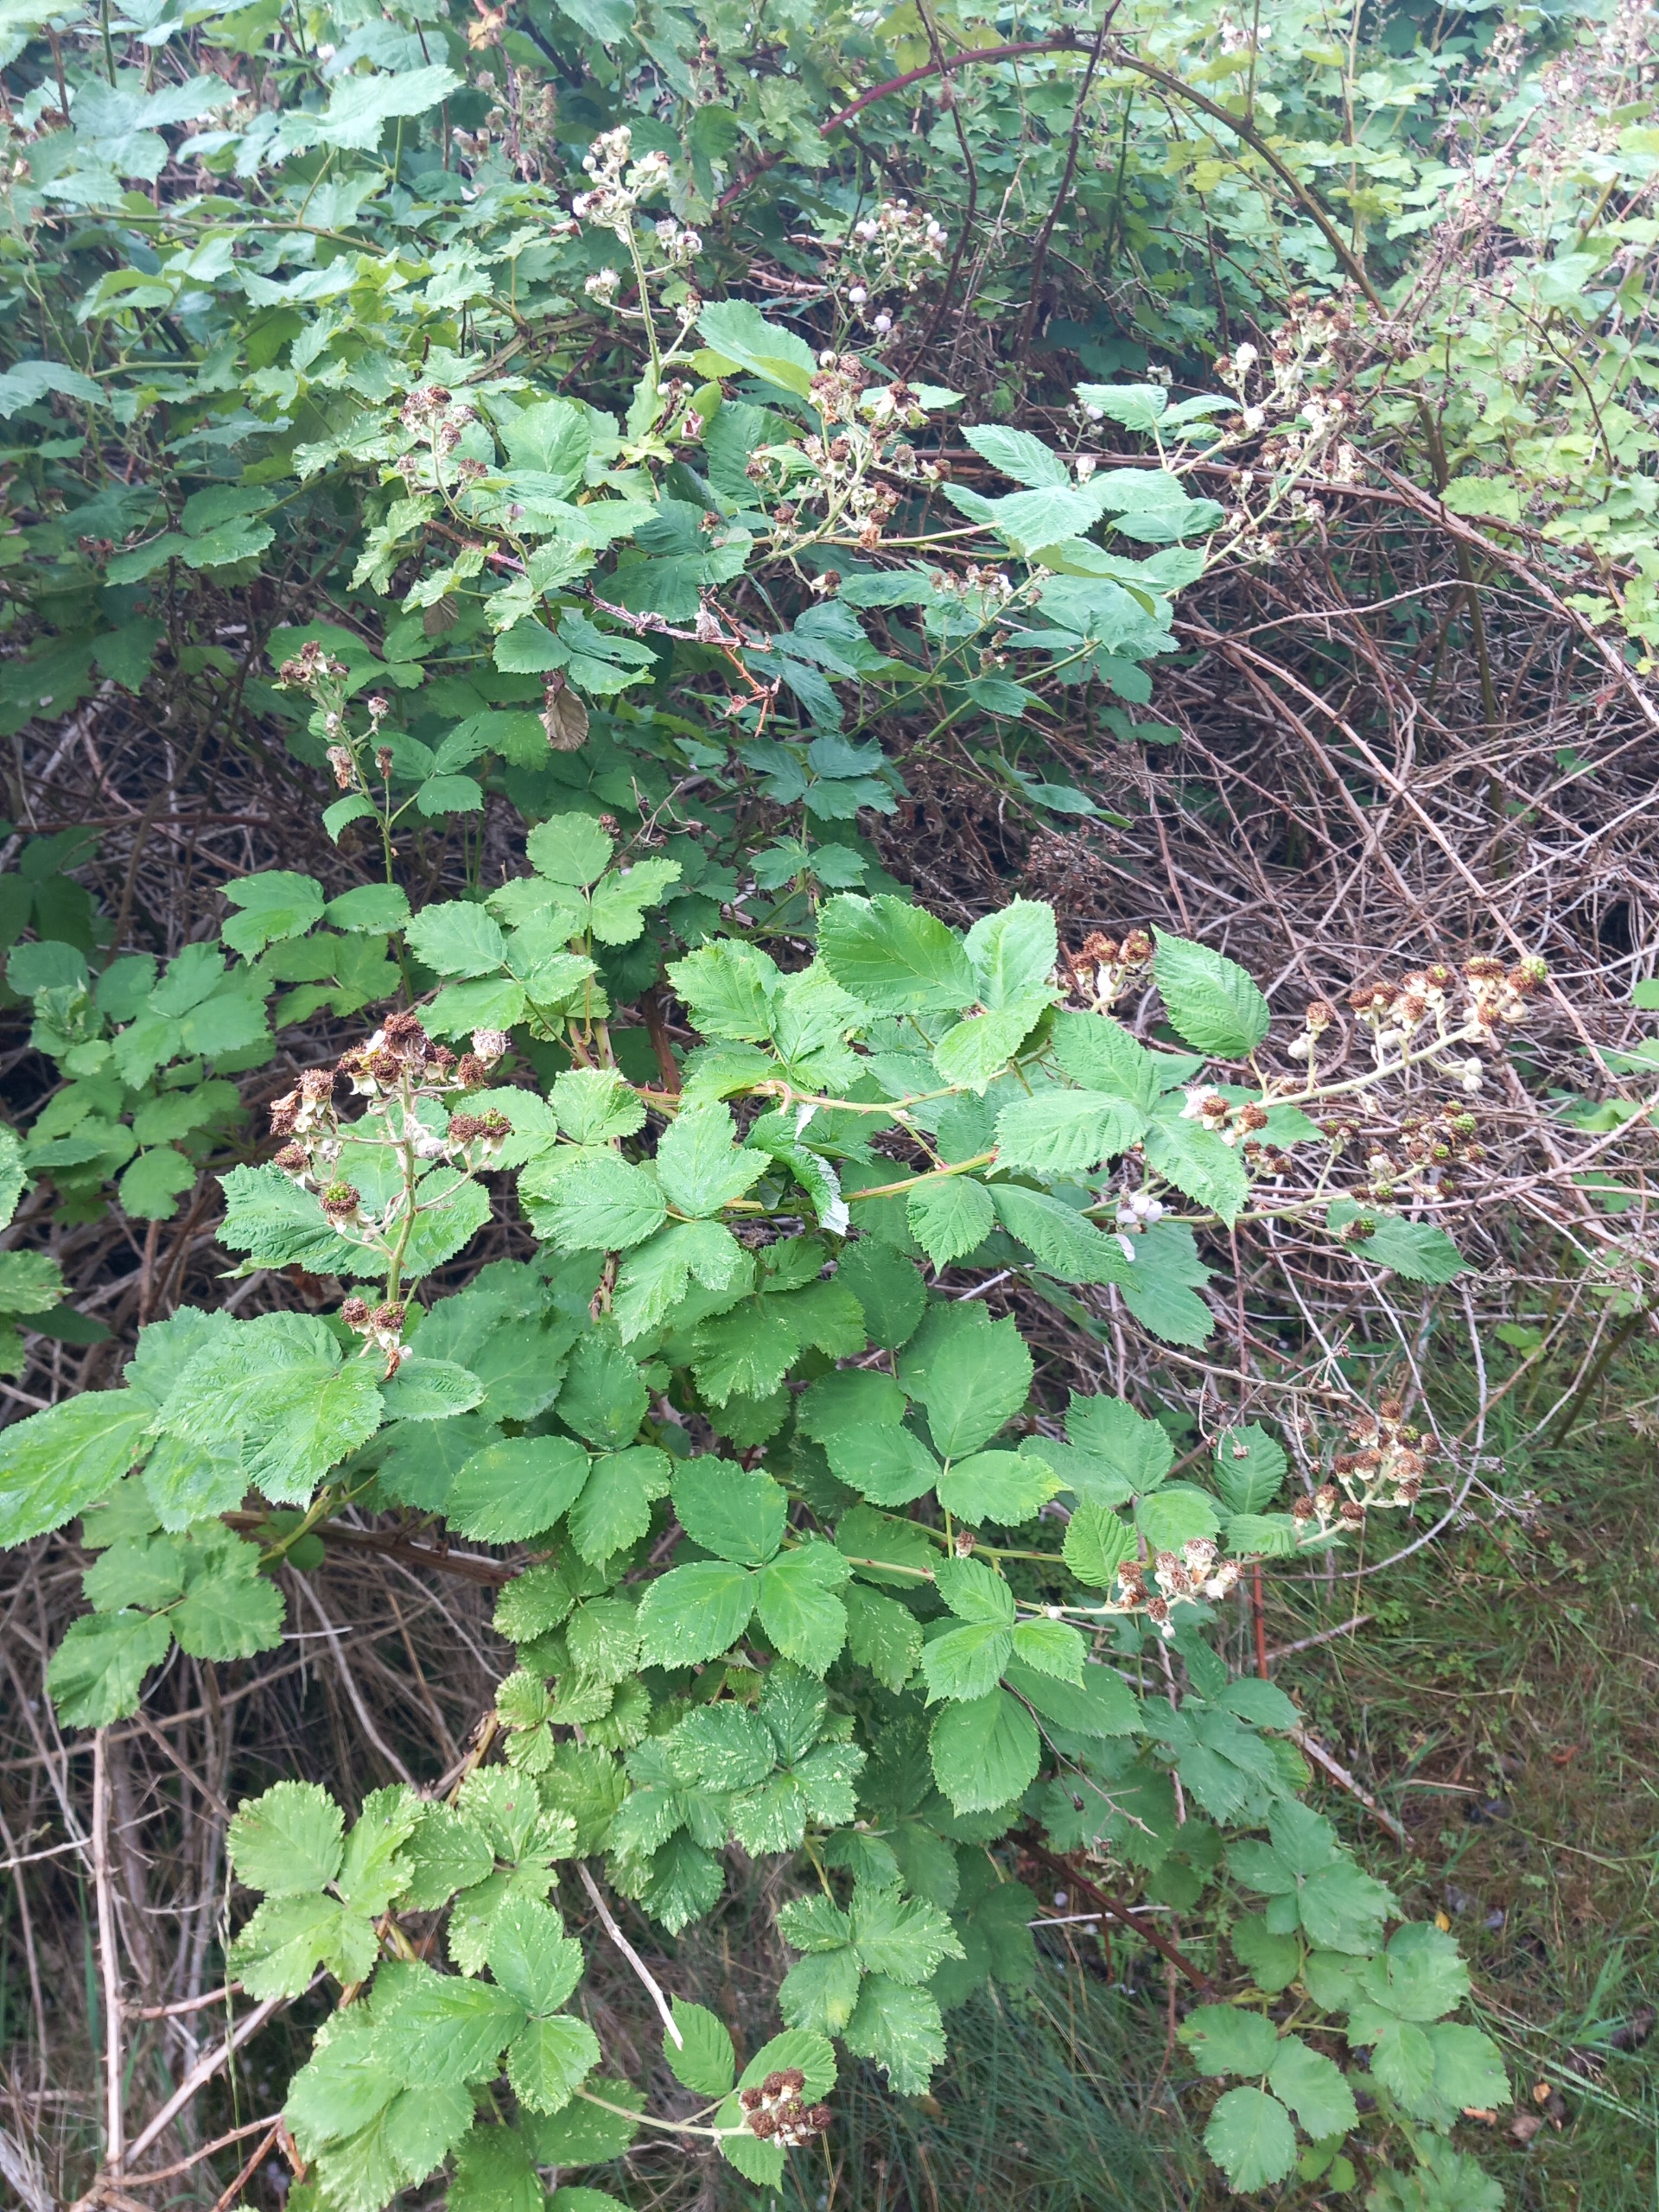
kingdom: Plantae
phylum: Tracheophyta
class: Magnoliopsida
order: Rosales
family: Rosaceae
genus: Rubus
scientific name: Rubus armeniacus
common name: Armensk brombær
